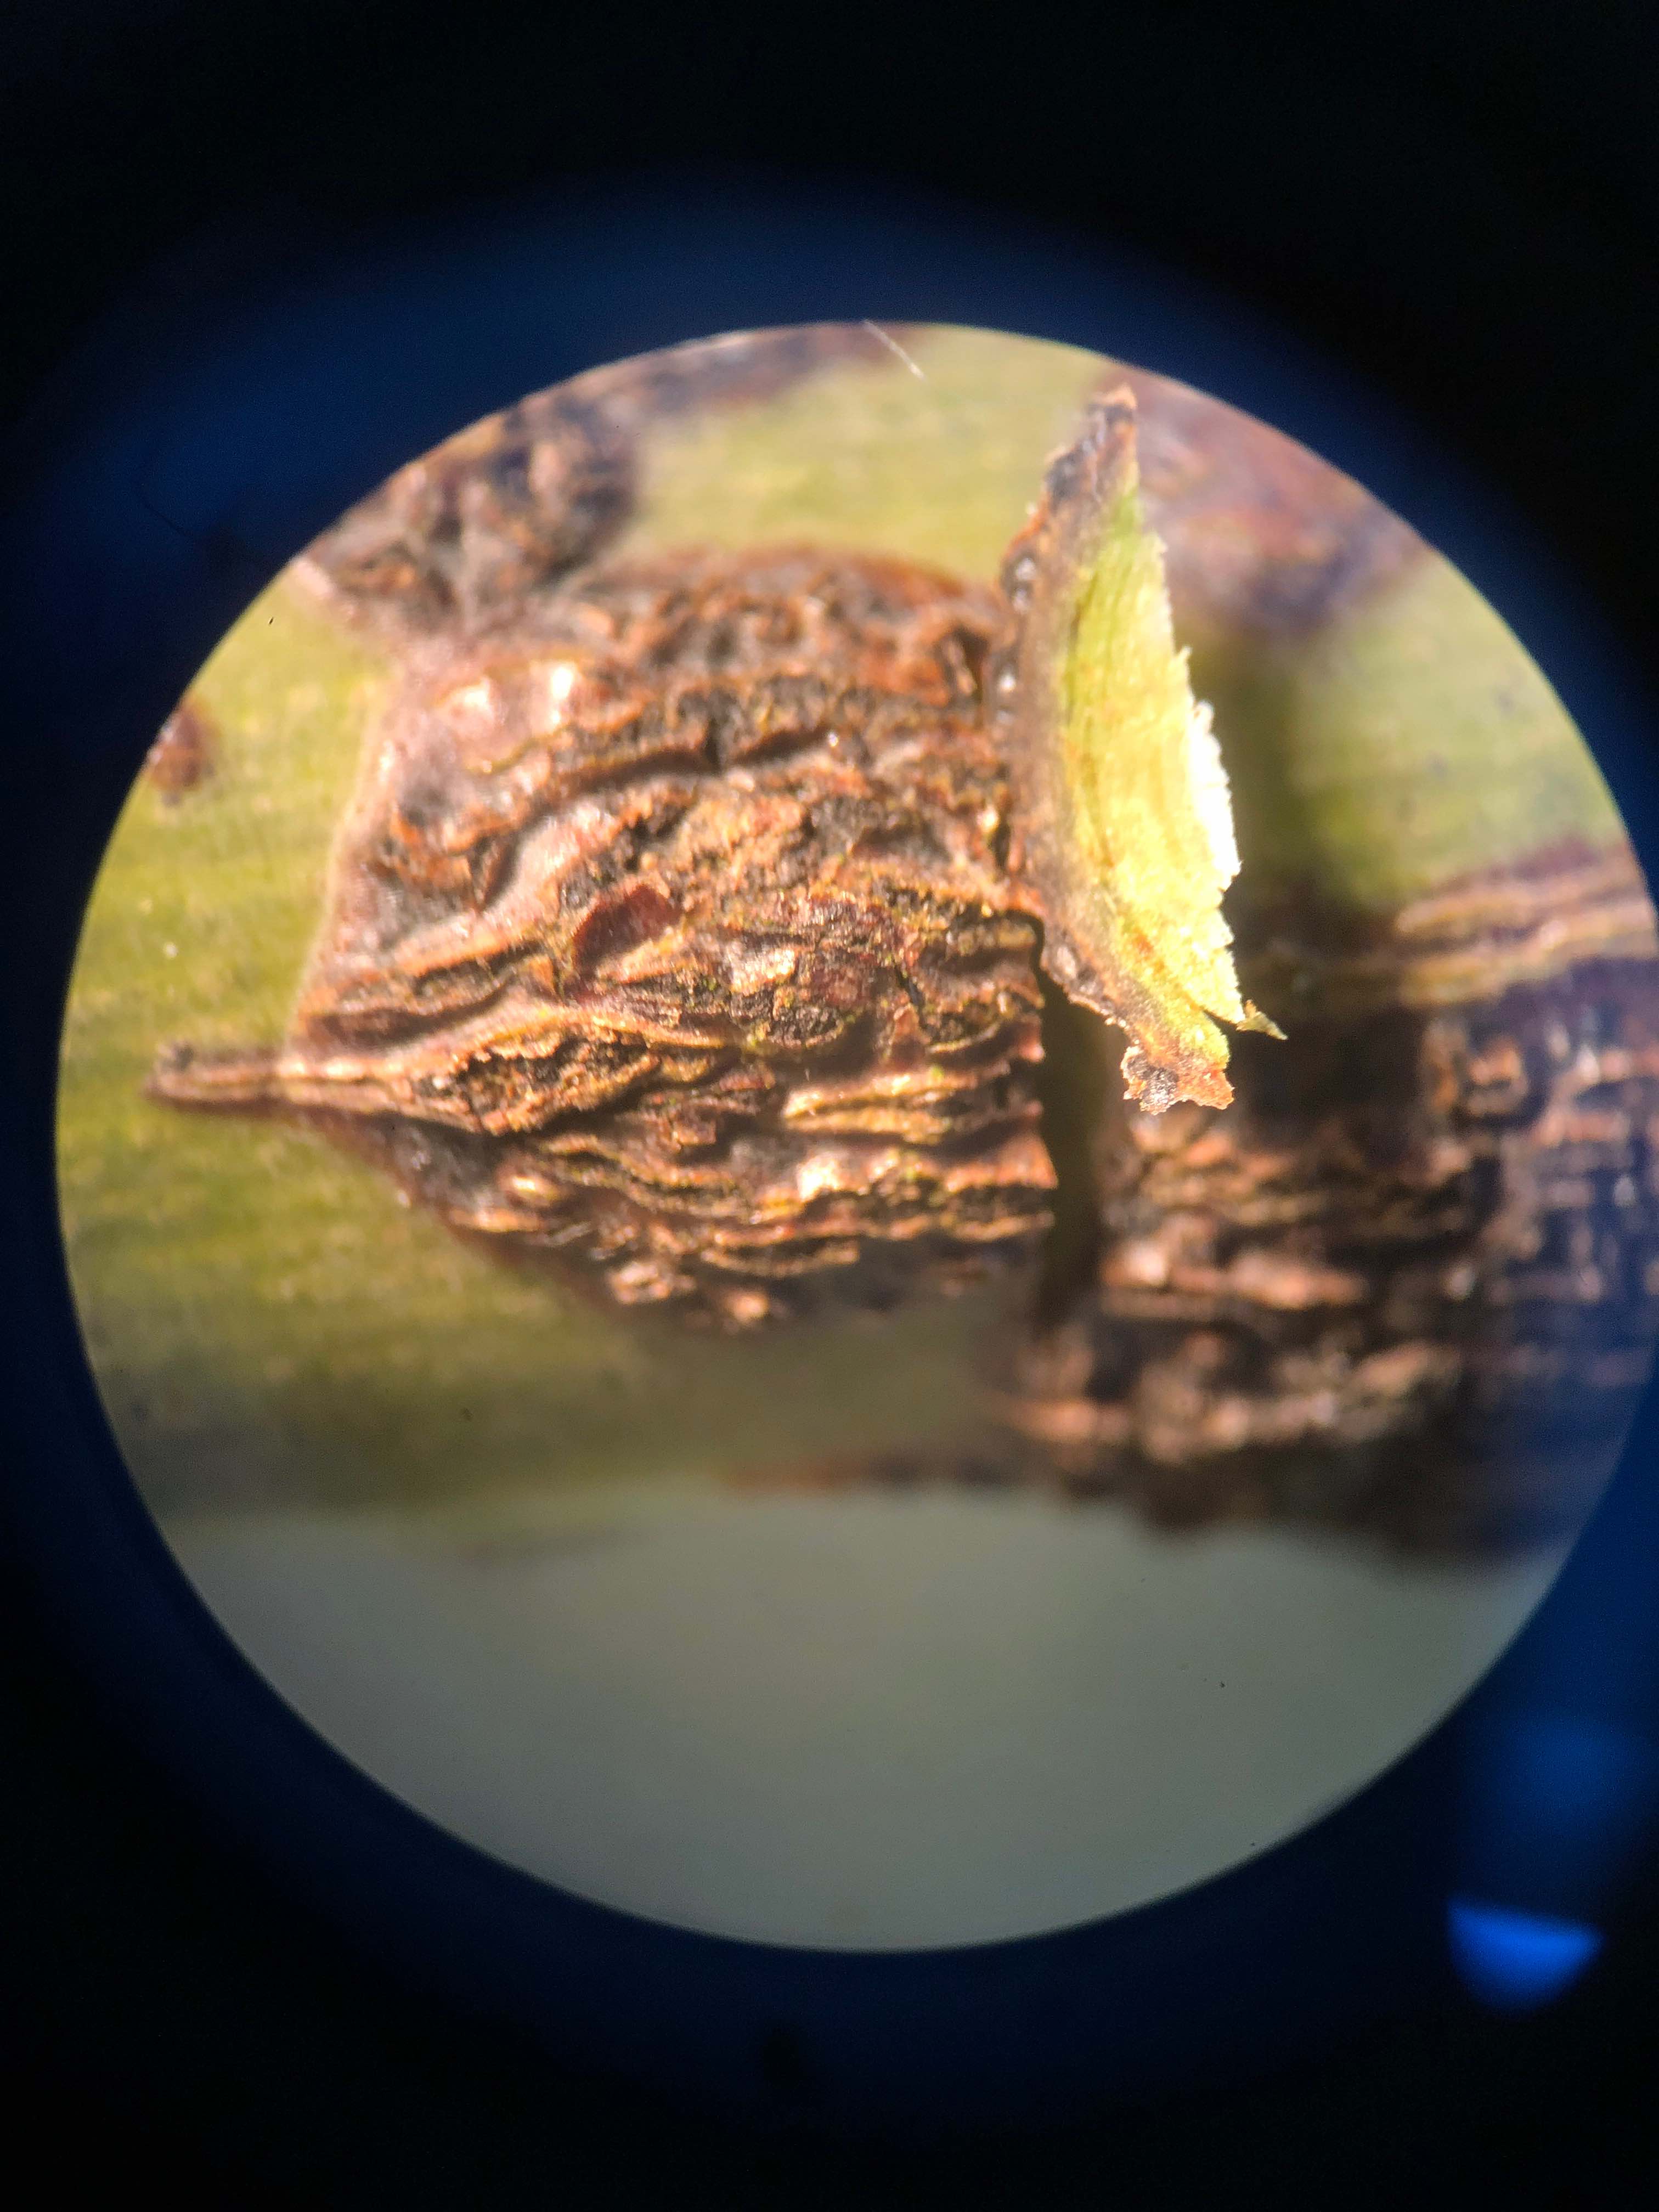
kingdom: Fungi
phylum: Ascomycota
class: Dothideomycetes
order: Botryosphaeriales
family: Botryosphaeriaceae
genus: Botryosphaeria
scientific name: Botryosphaeria dothidea
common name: Asteromyia gall midge fungus
